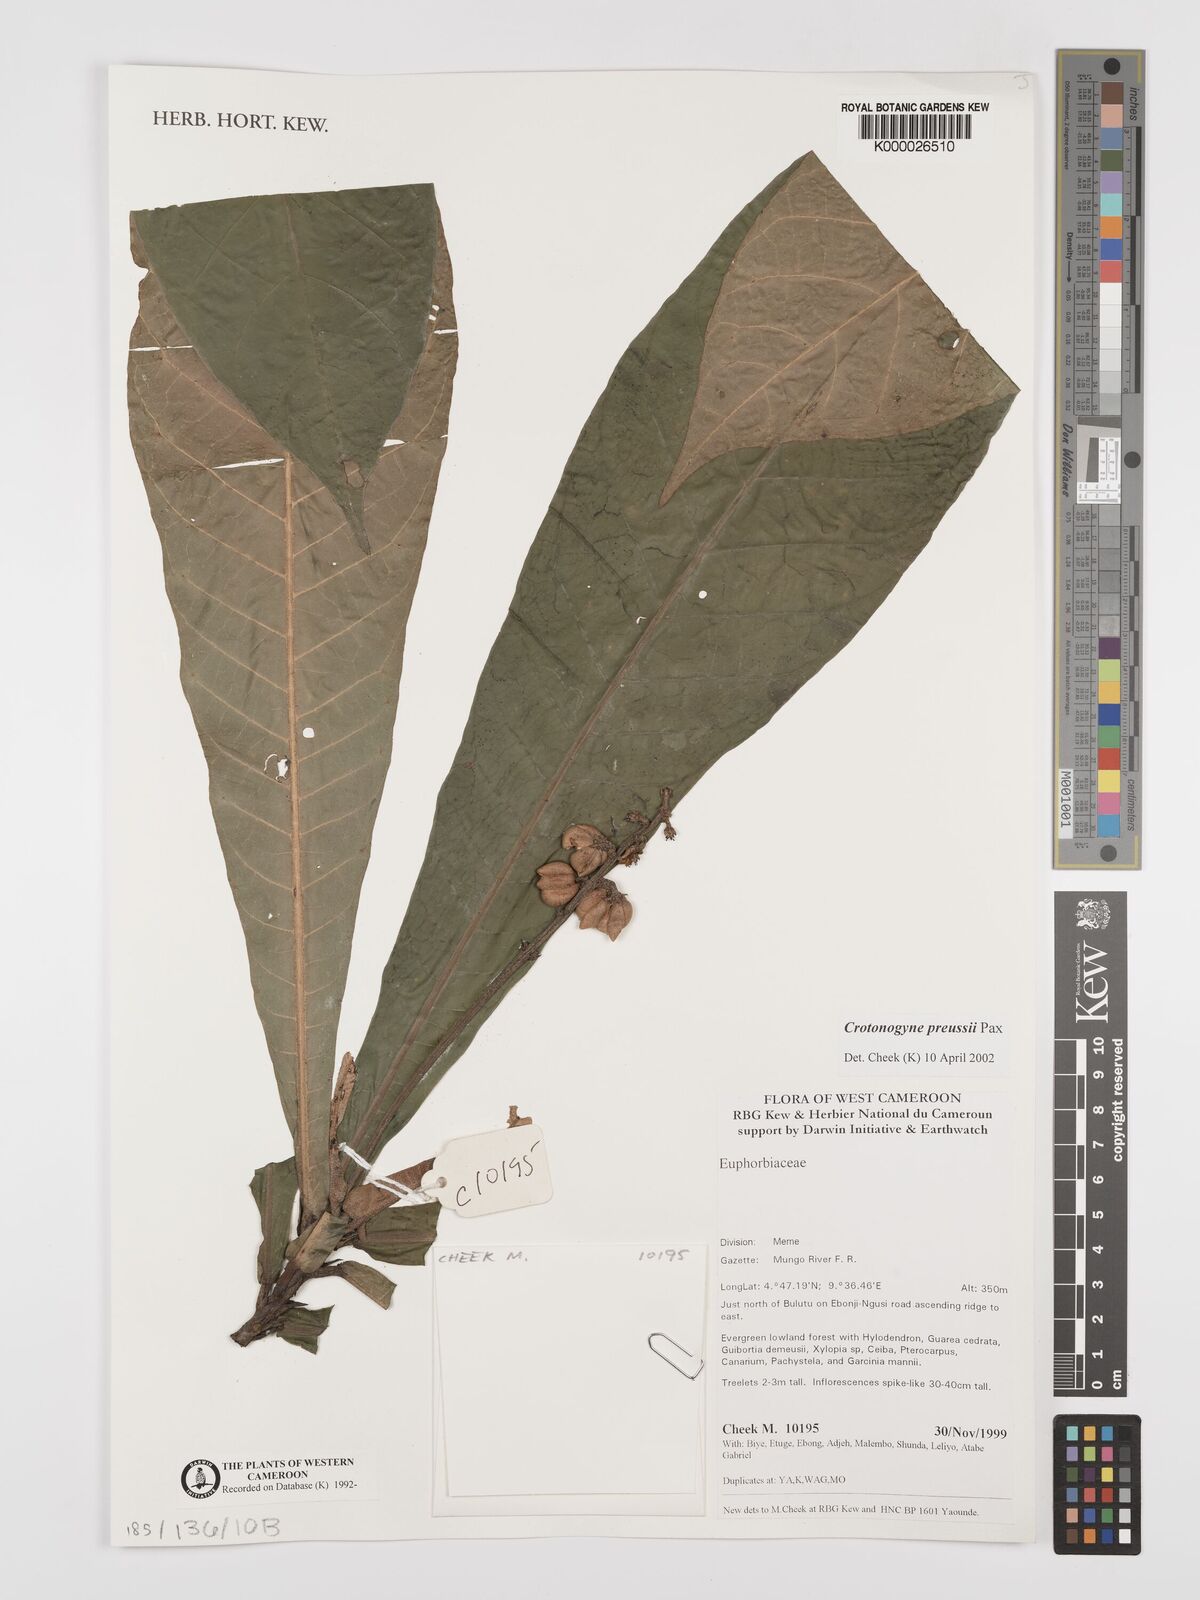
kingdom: Plantae
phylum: Tracheophyta
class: Magnoliopsida
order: Malpighiales
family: Euphorbiaceae
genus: Crotonogyne
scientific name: Crotonogyne preussii
